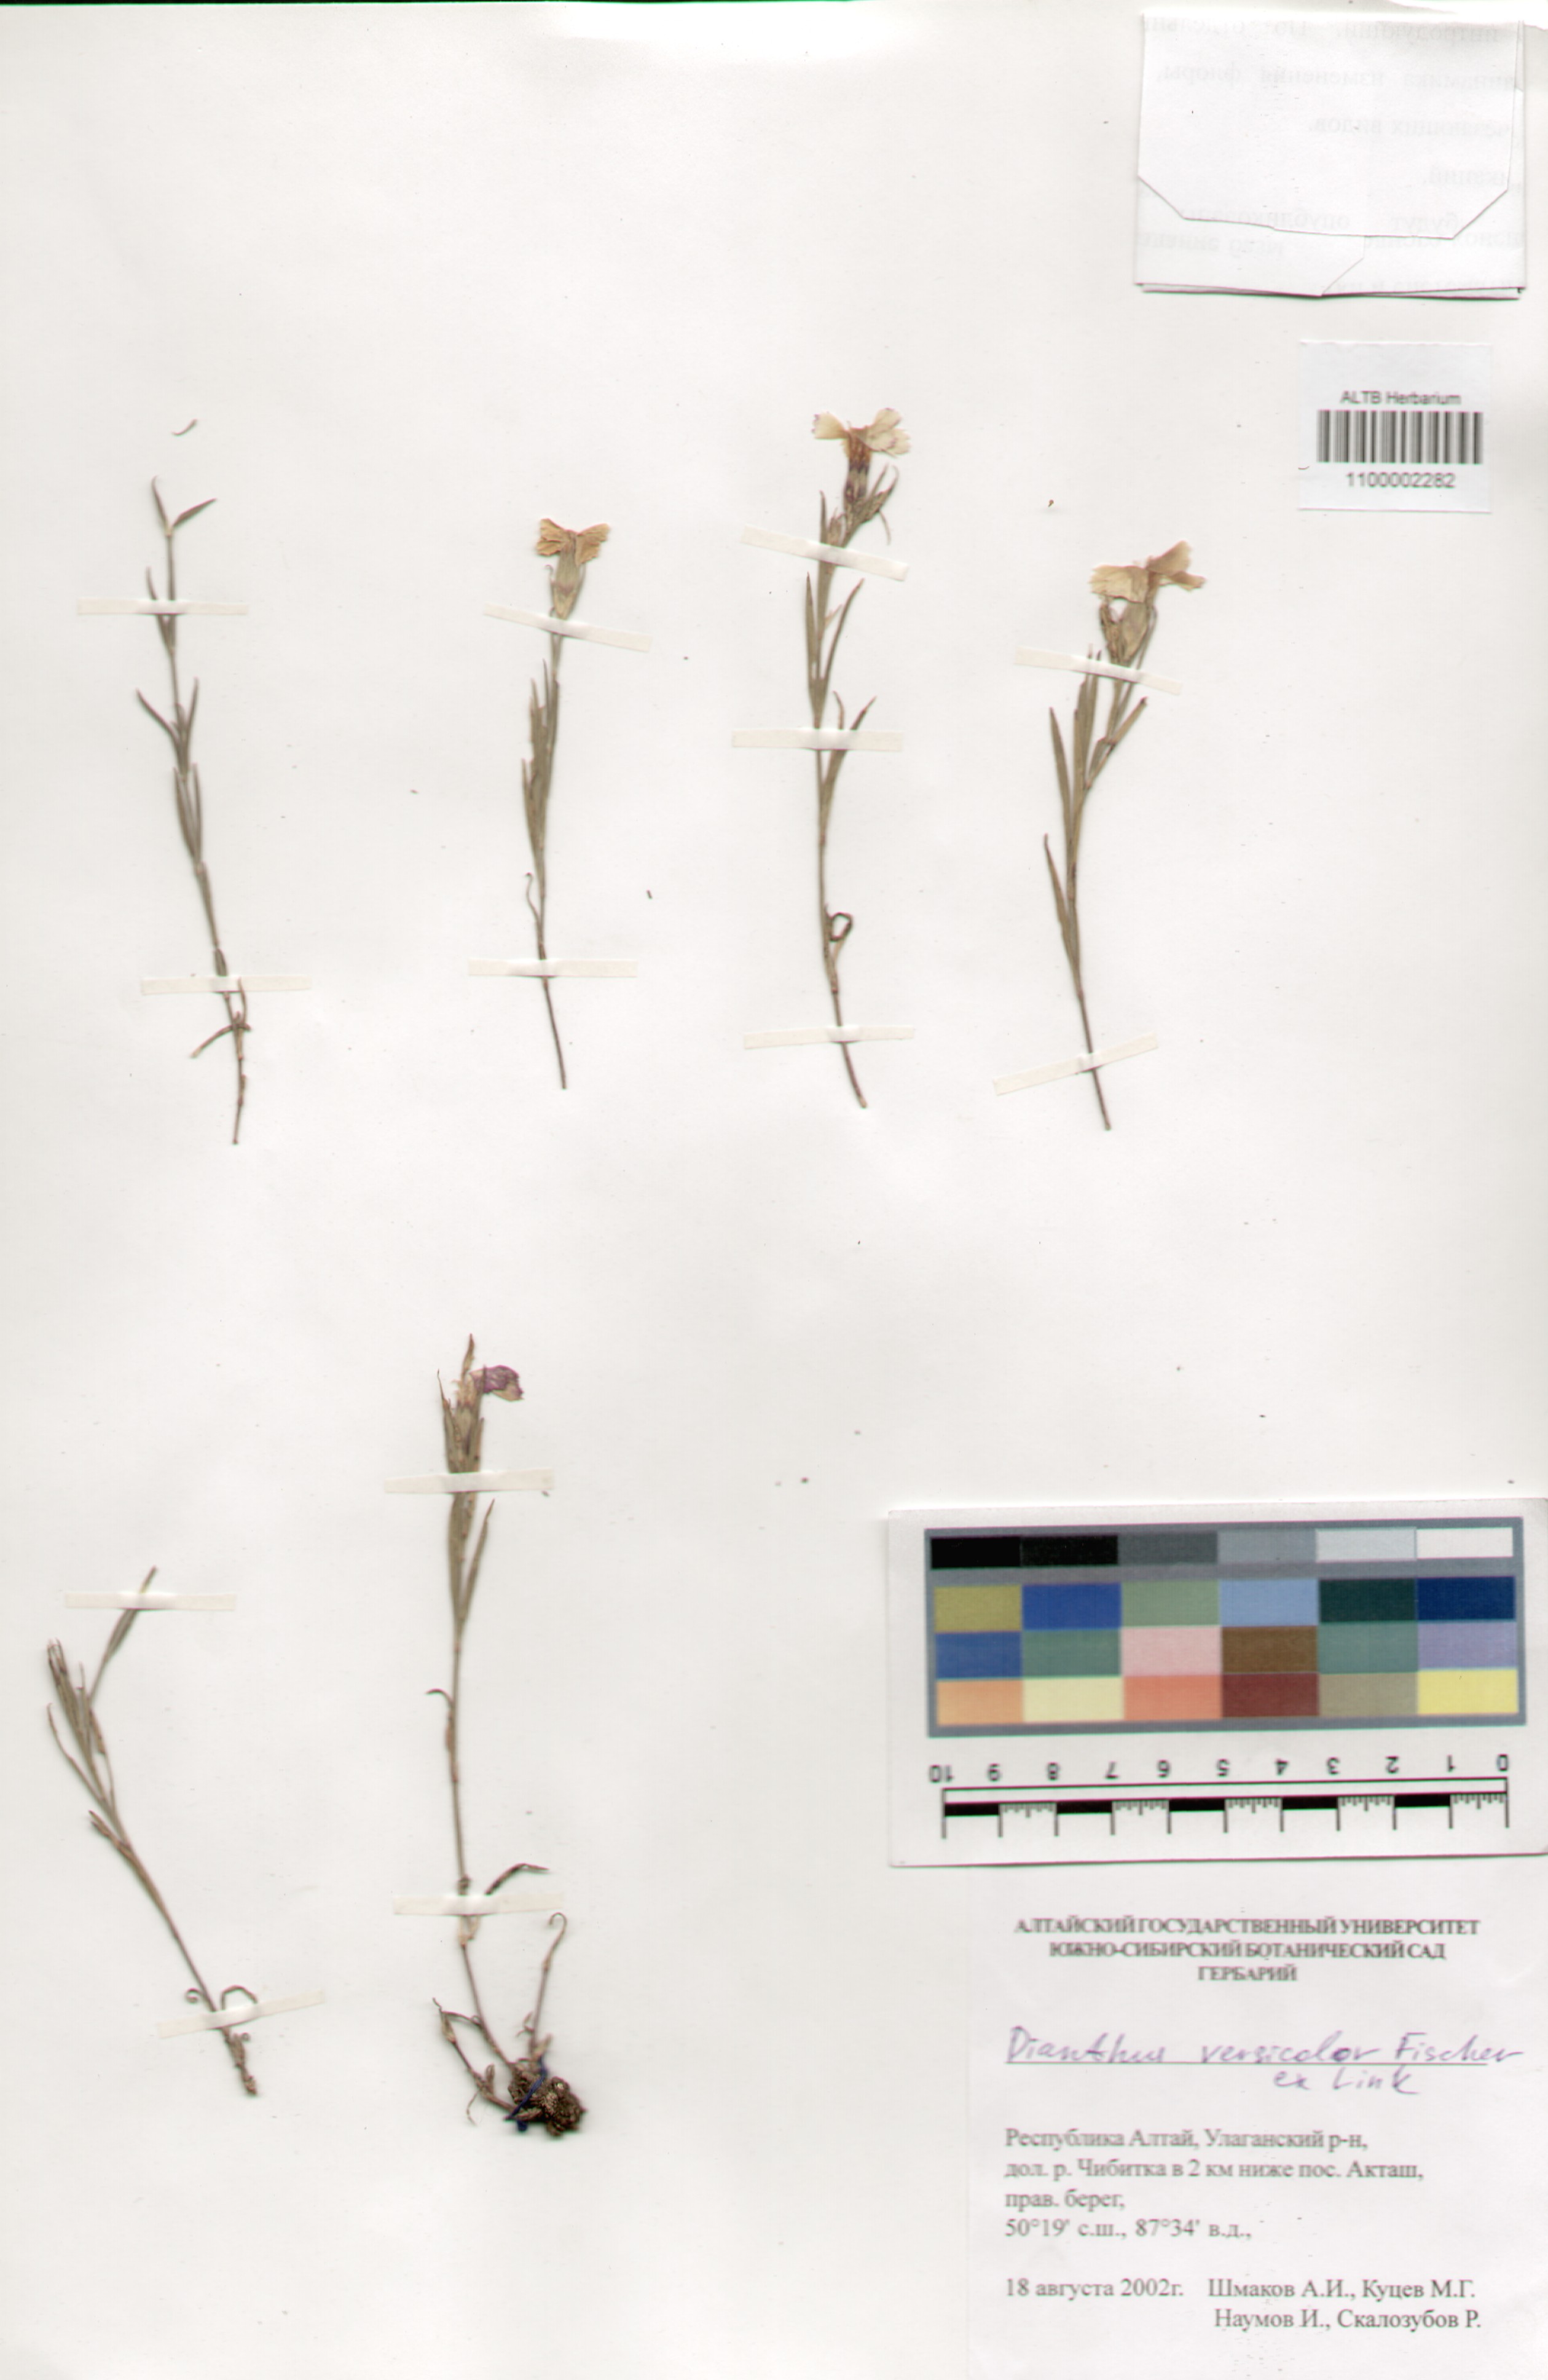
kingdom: Plantae
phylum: Tracheophyta
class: Magnoliopsida
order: Caryophyllales
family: Caryophyllaceae
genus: Dianthus
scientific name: Dianthus chinensis
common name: Rainbow pink
